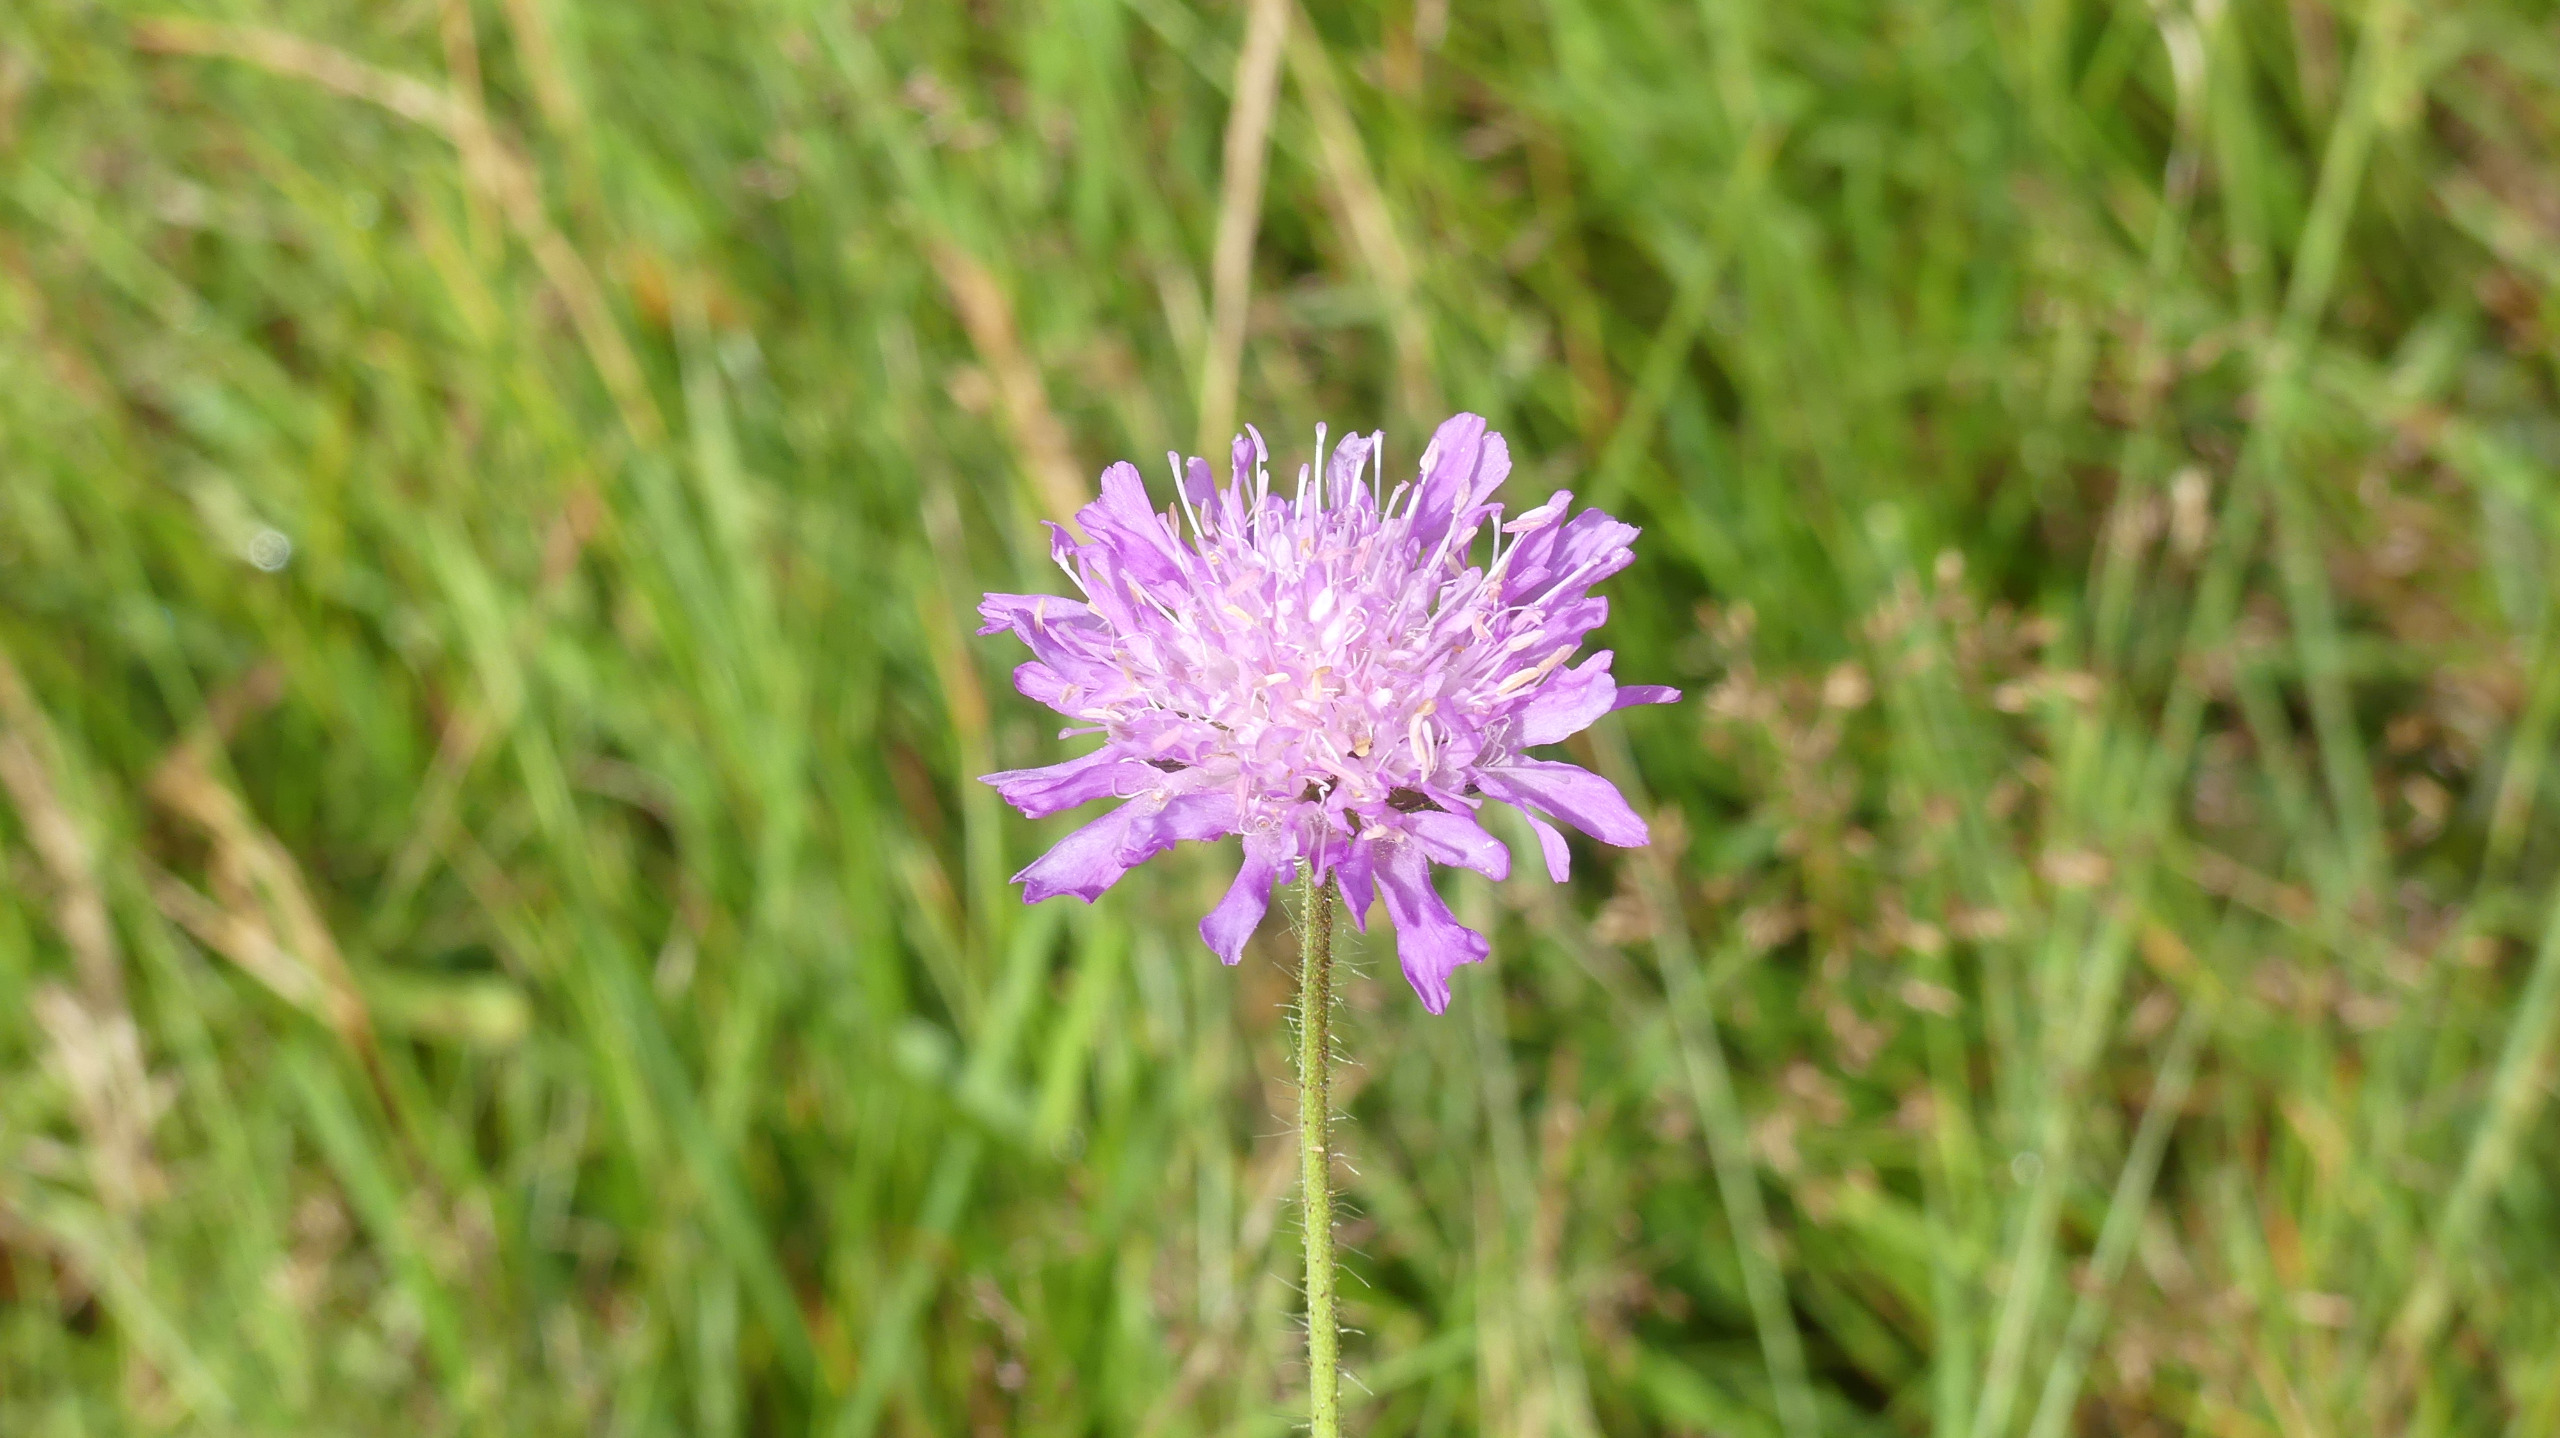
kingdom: Plantae
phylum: Tracheophyta
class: Magnoliopsida
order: Dipsacales
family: Caprifoliaceae
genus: Knautia
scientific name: Knautia arvensis
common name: Blåhat
